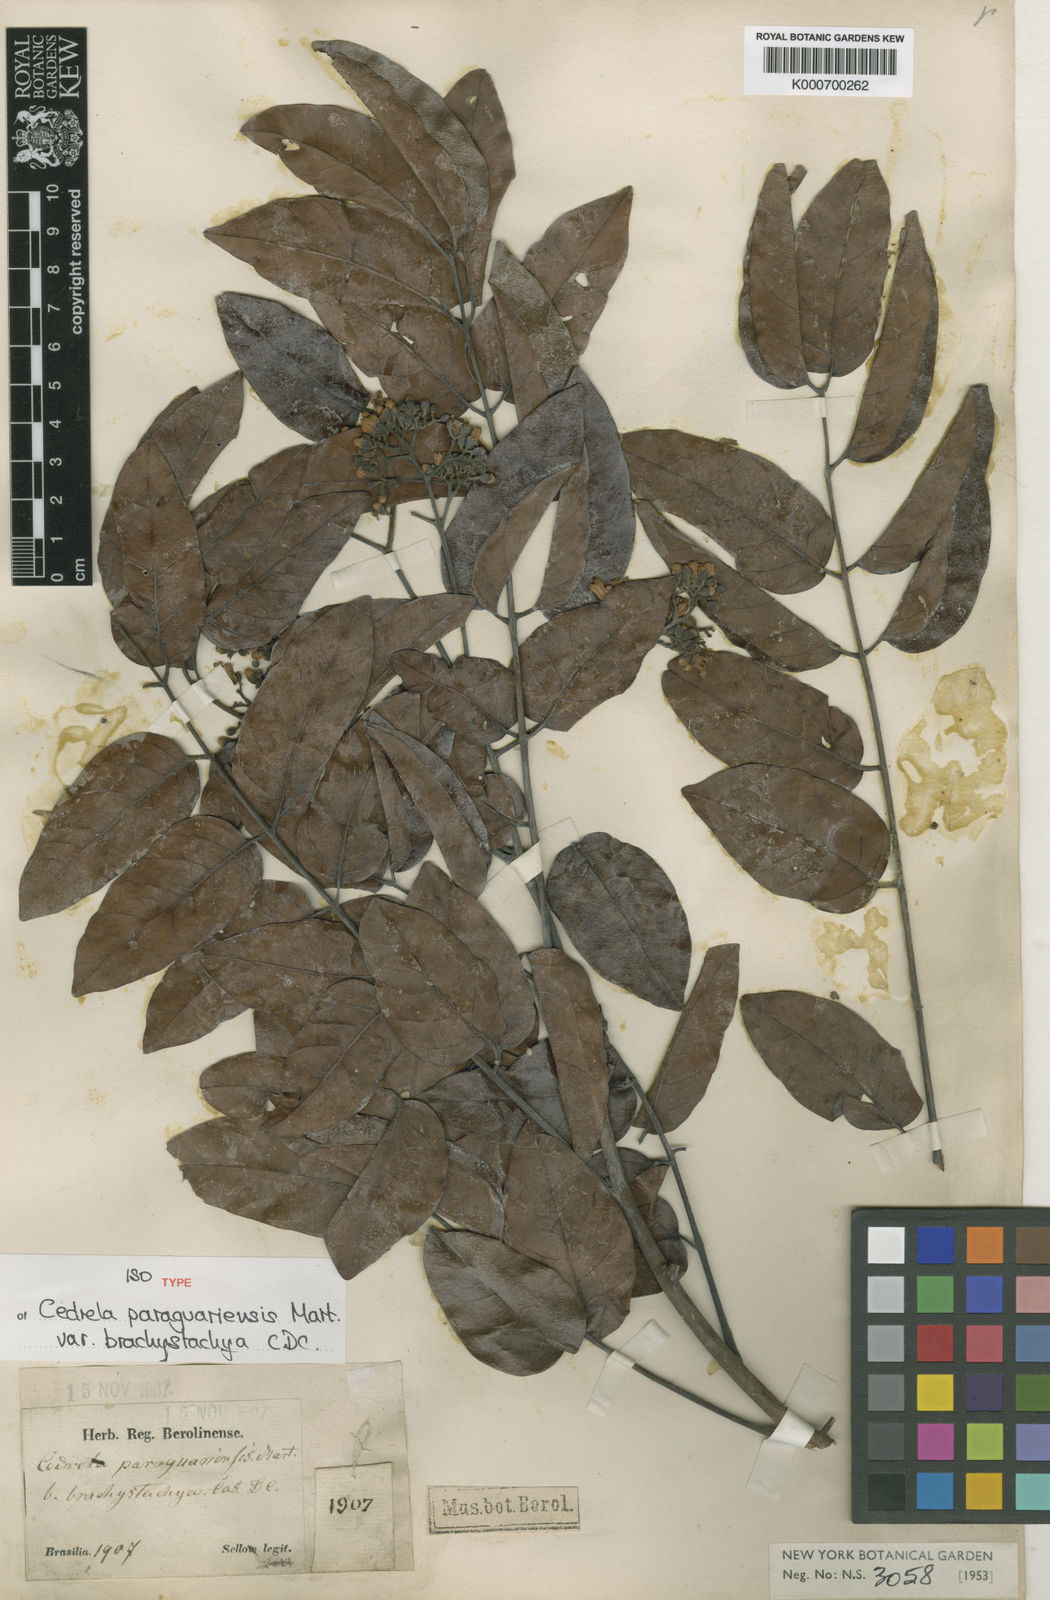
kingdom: Plantae
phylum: Tracheophyta
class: Magnoliopsida
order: Sapindales
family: Meliaceae
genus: Cedrela
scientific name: Cedrela odorata
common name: Red cedar
